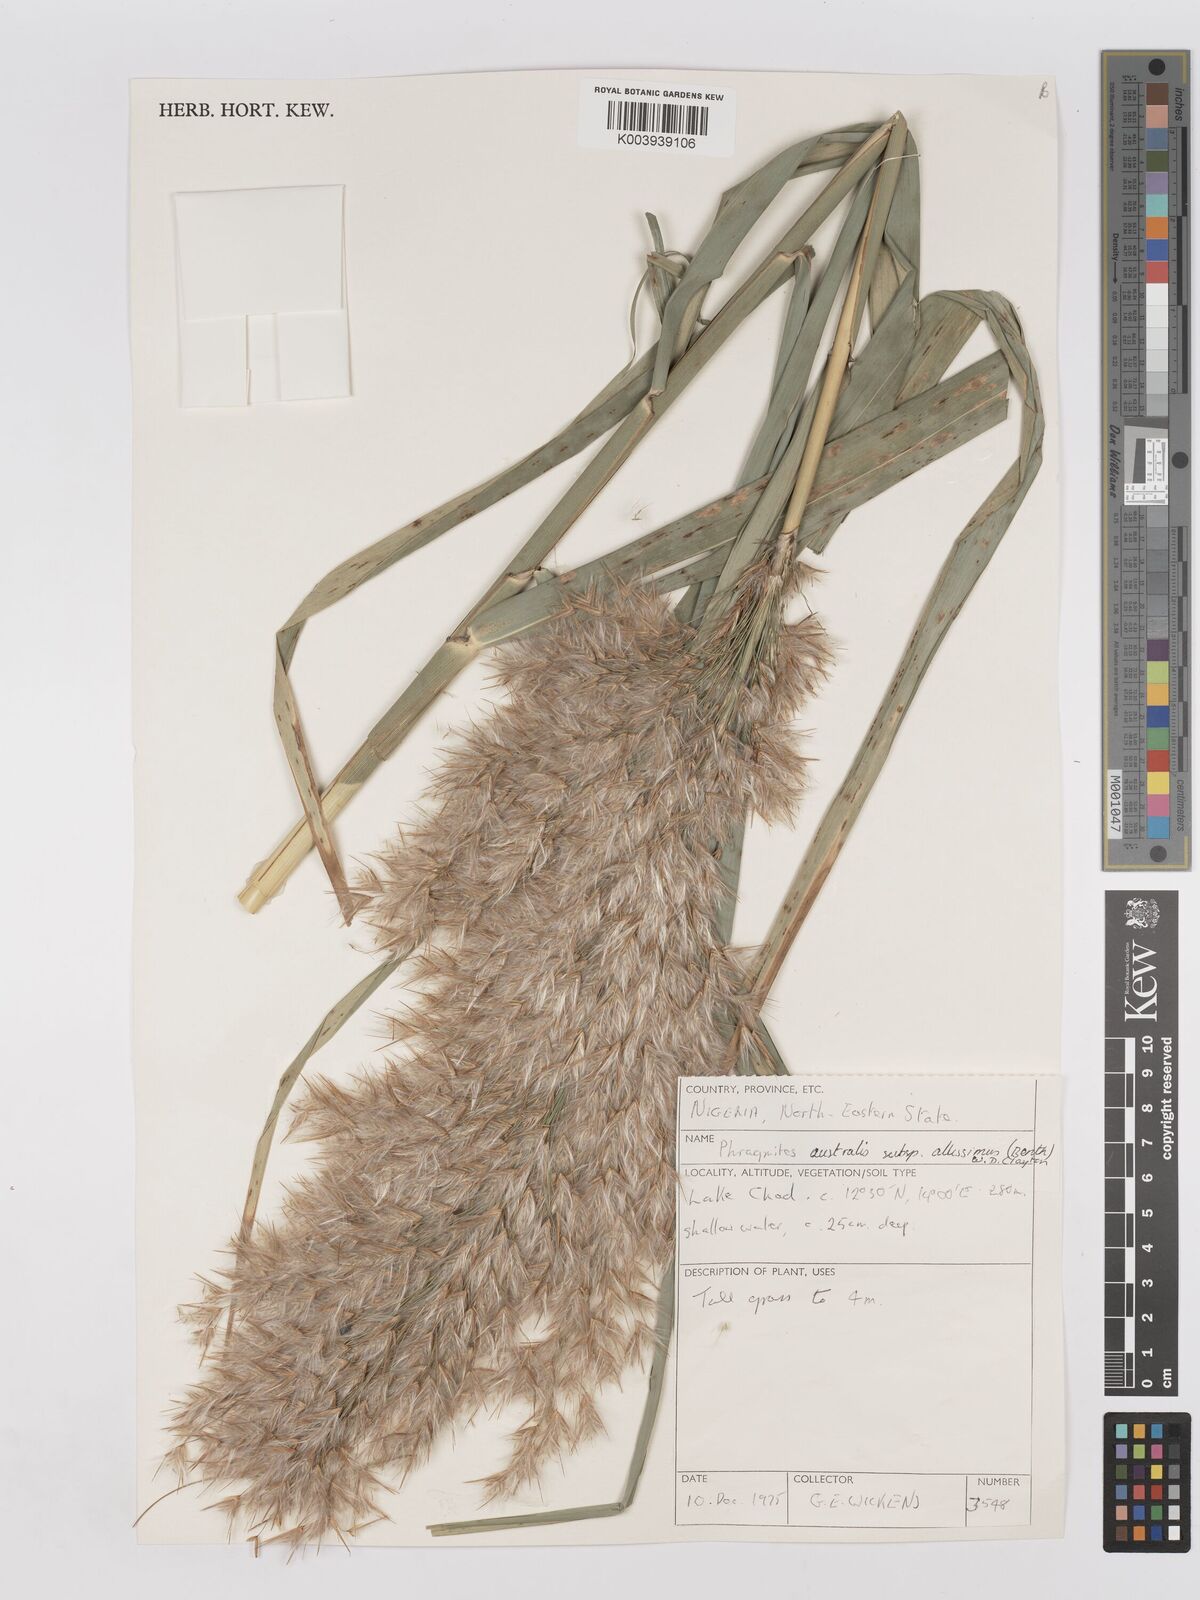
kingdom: Plantae
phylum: Tracheophyta
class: Liliopsida
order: Poales
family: Poaceae
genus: Phragmites
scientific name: Phragmites australis
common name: Common reed
